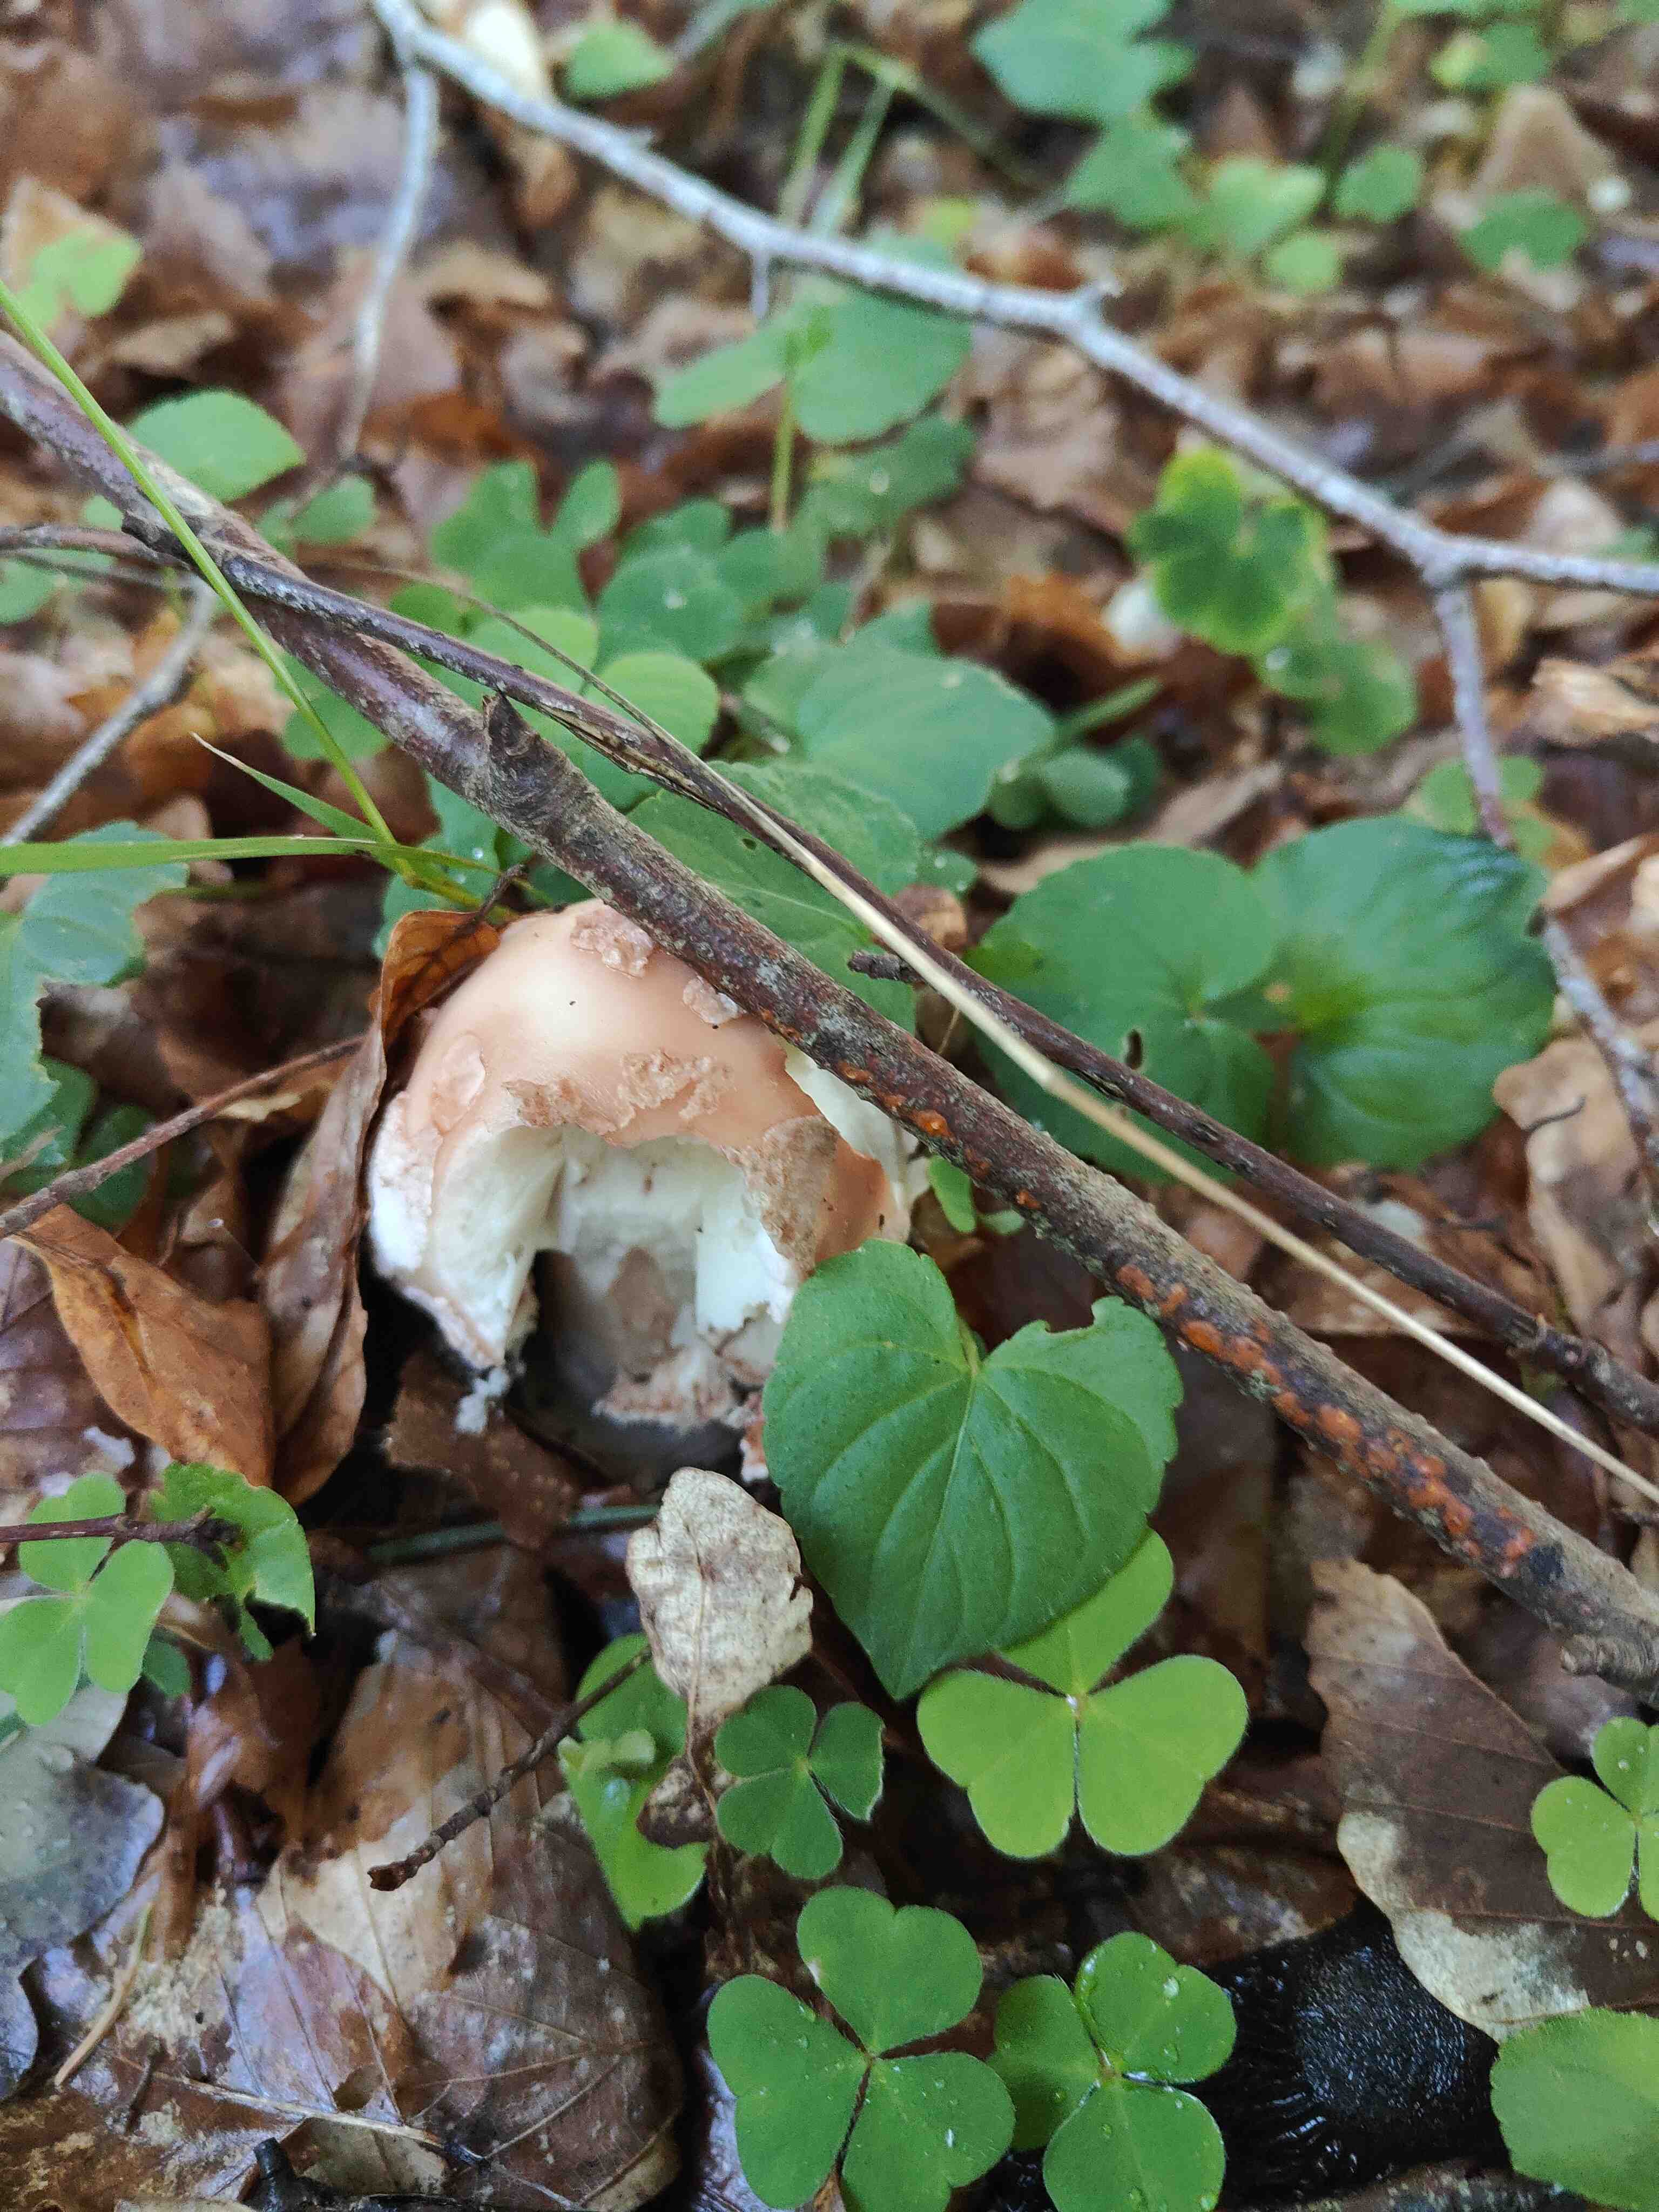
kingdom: Fungi
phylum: Basidiomycota
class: Agaricomycetes
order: Agaricales
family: Amanitaceae
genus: Amanita
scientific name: Amanita rubescens
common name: rødmende fluesvamp
